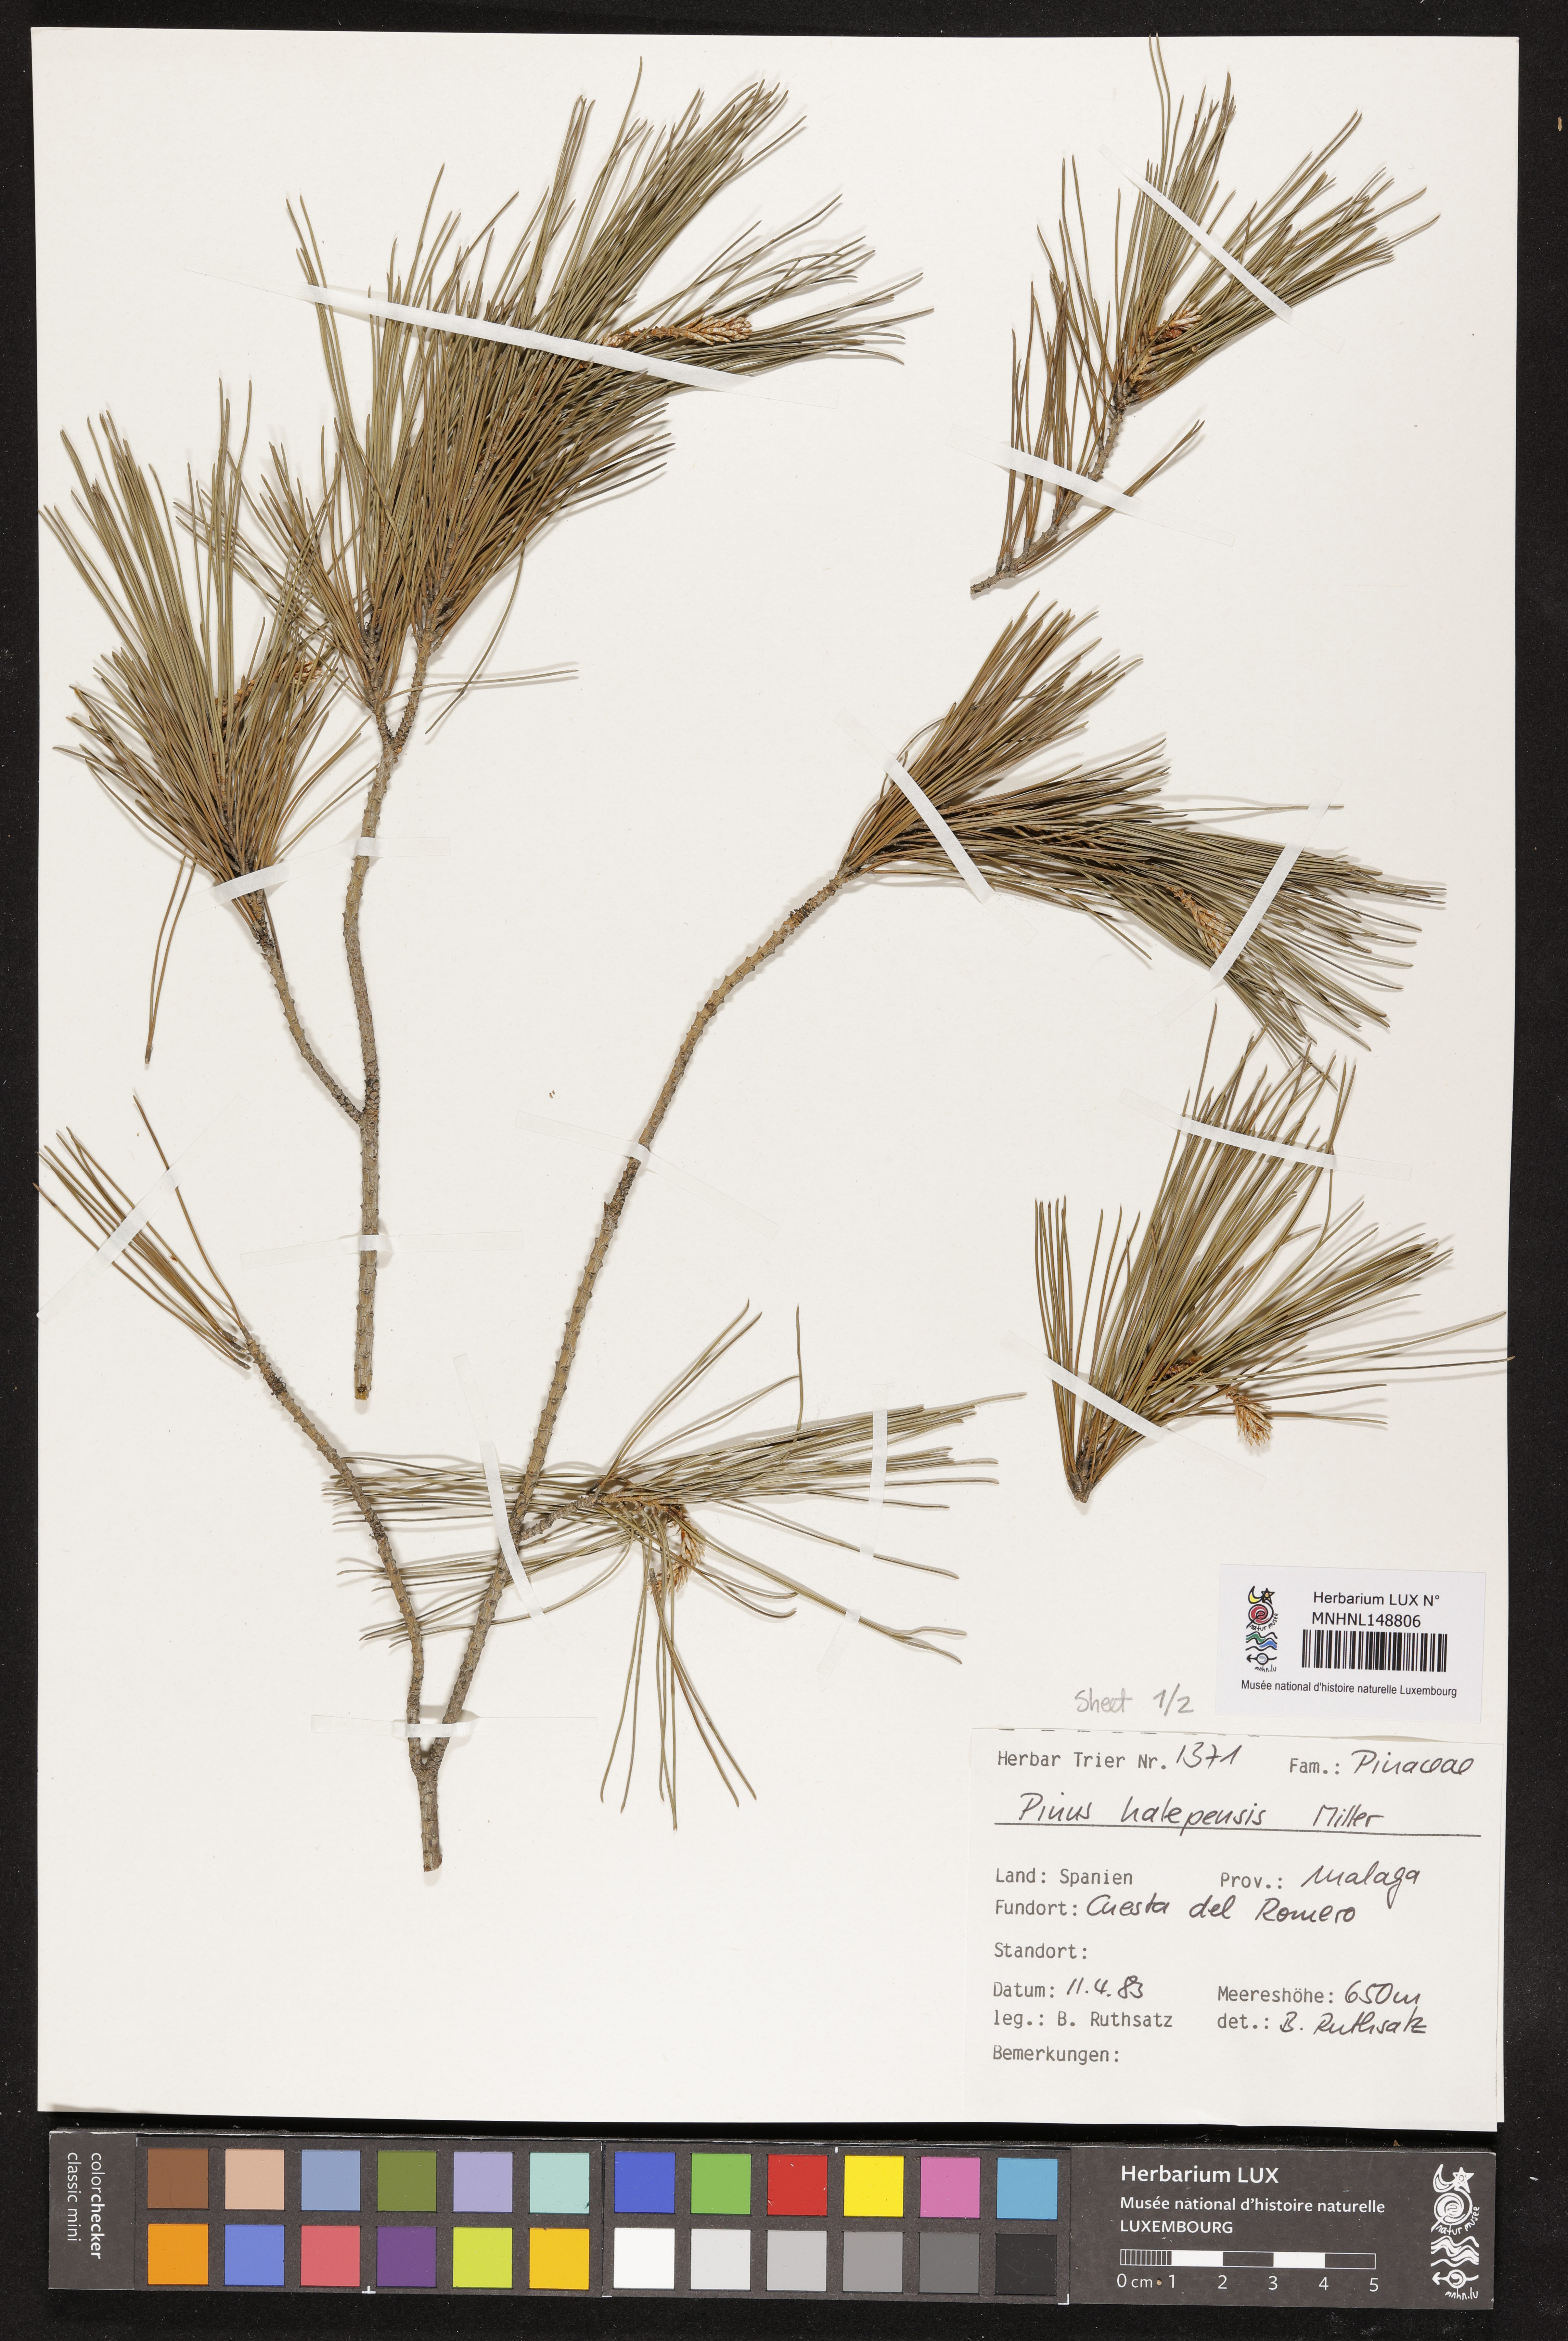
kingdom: Plantae
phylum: Tracheophyta
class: Pinopsida
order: Pinales
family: Pinaceae
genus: Pinus
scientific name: Pinus halepensis
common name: Aleppo pine
